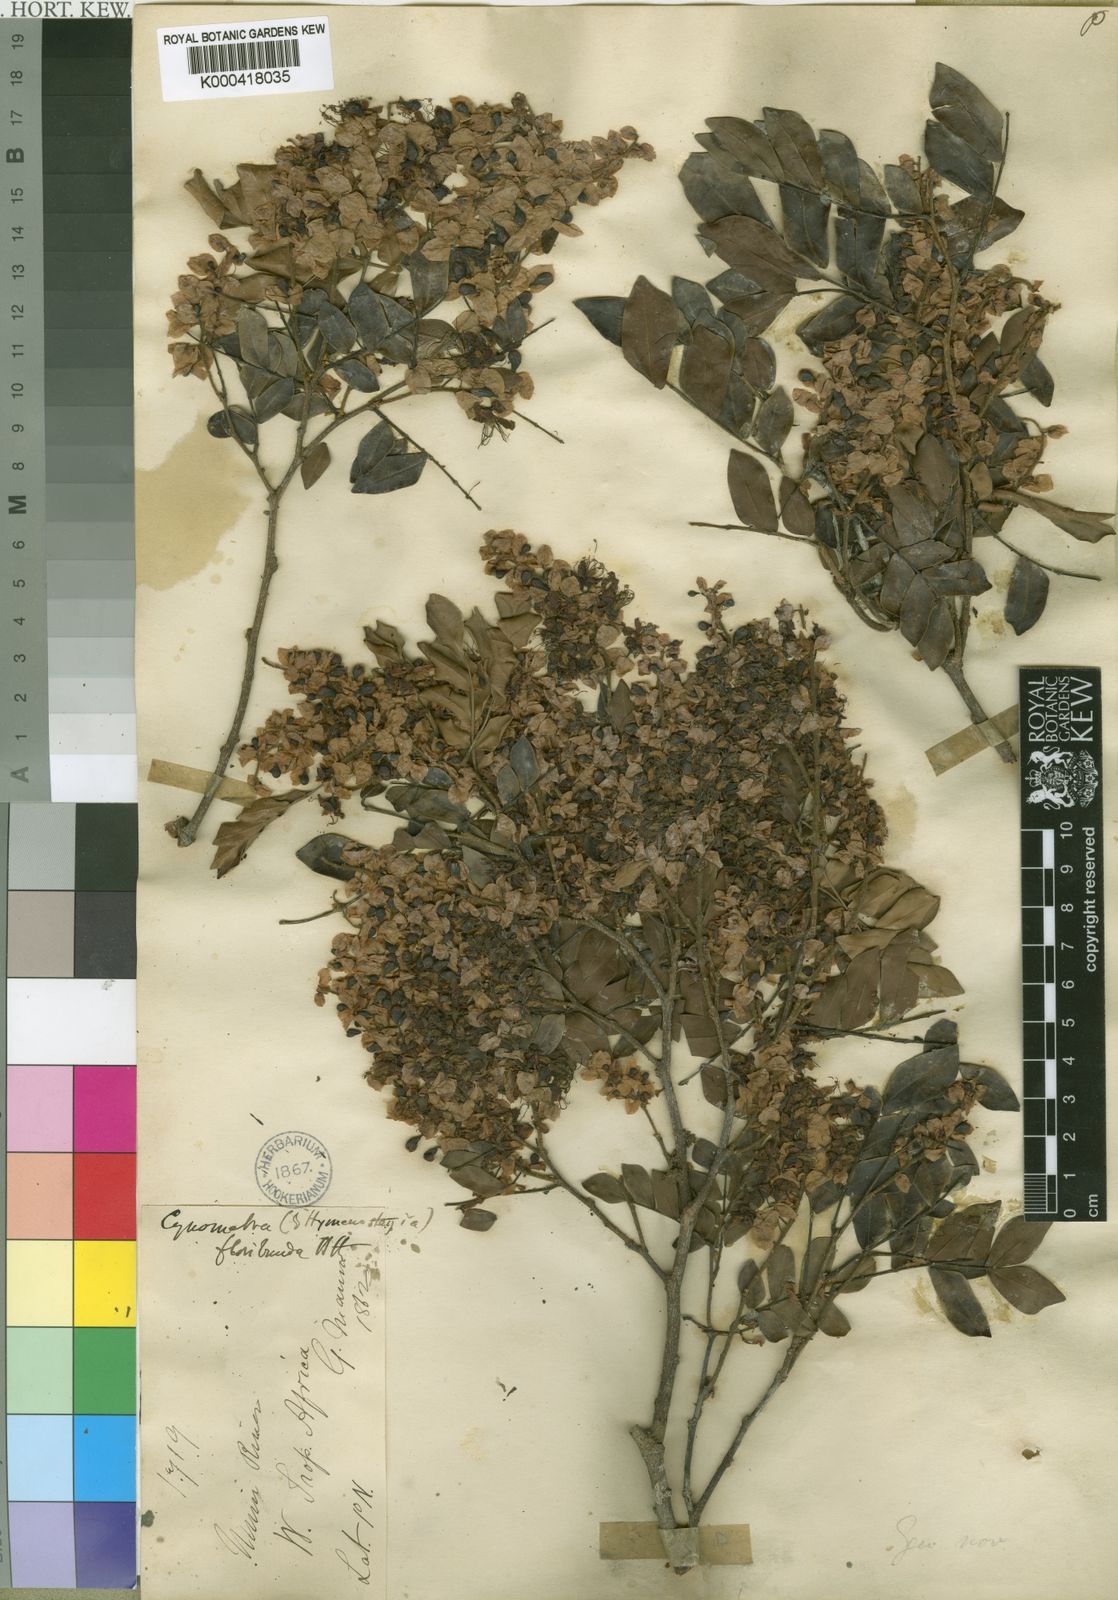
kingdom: Plantae
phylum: Tracheophyta
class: Magnoliopsida
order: Fabales
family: Fabaceae
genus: Hymenostegia
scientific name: Hymenostegia floribunda
